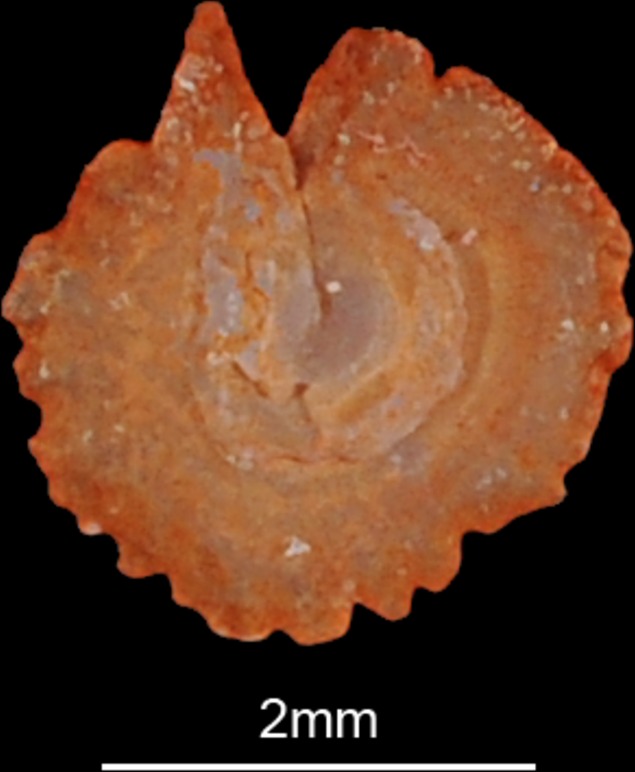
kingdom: Animalia
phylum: Chordata
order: Cypriniformes
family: Cyprinidae
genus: Ballerus
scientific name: Ballerus ballerus
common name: Blue bream
